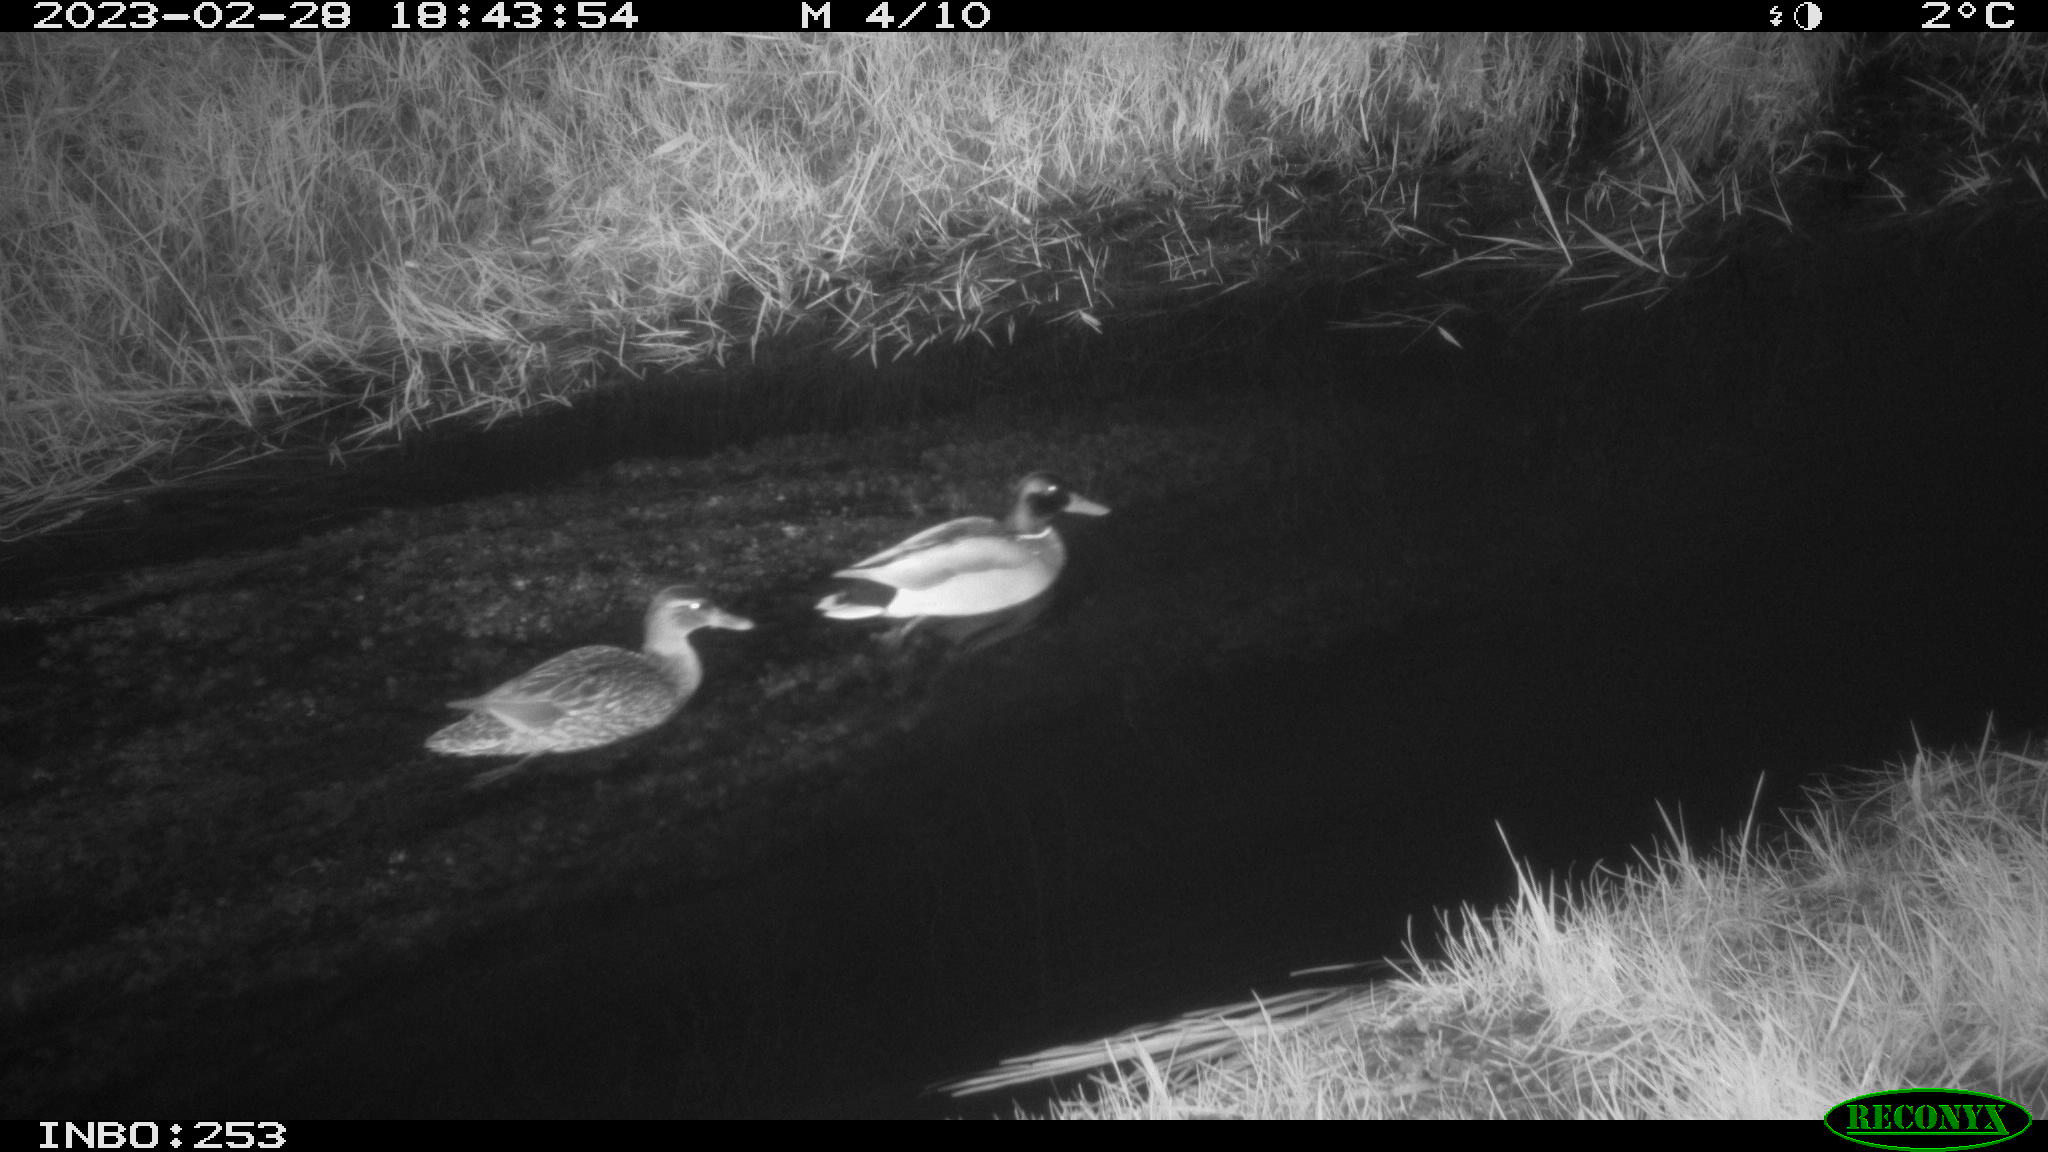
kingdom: Animalia
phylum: Chordata
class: Aves
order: Anseriformes
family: Anatidae
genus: Anas
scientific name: Anas
